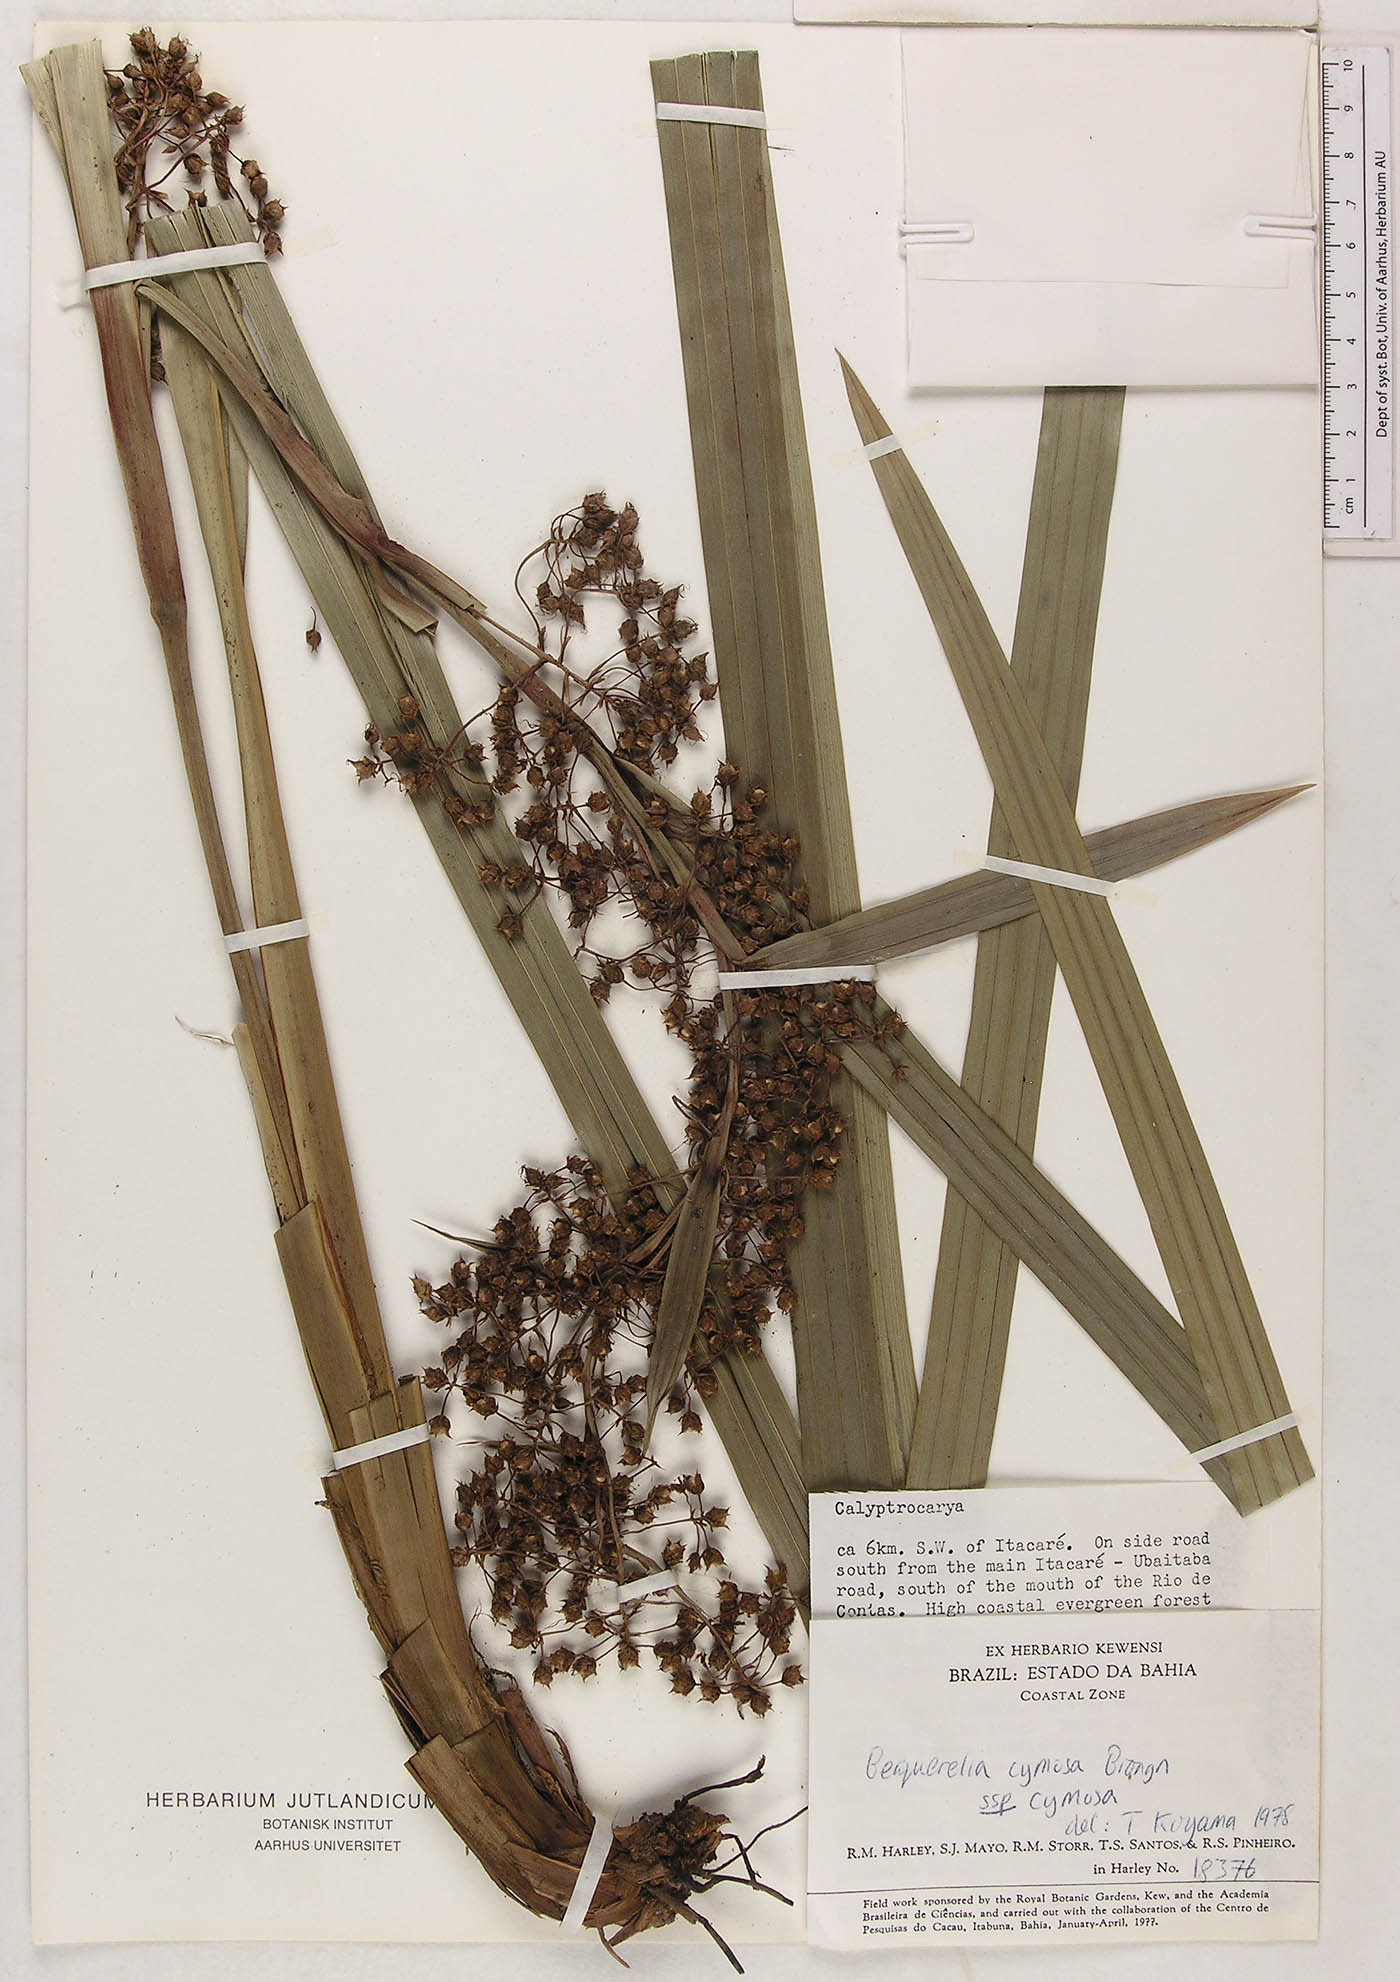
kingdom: Plantae
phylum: Tracheophyta
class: Liliopsida
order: Poales
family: Cyperaceae
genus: Becquerelia
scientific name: Becquerelia cymosa
